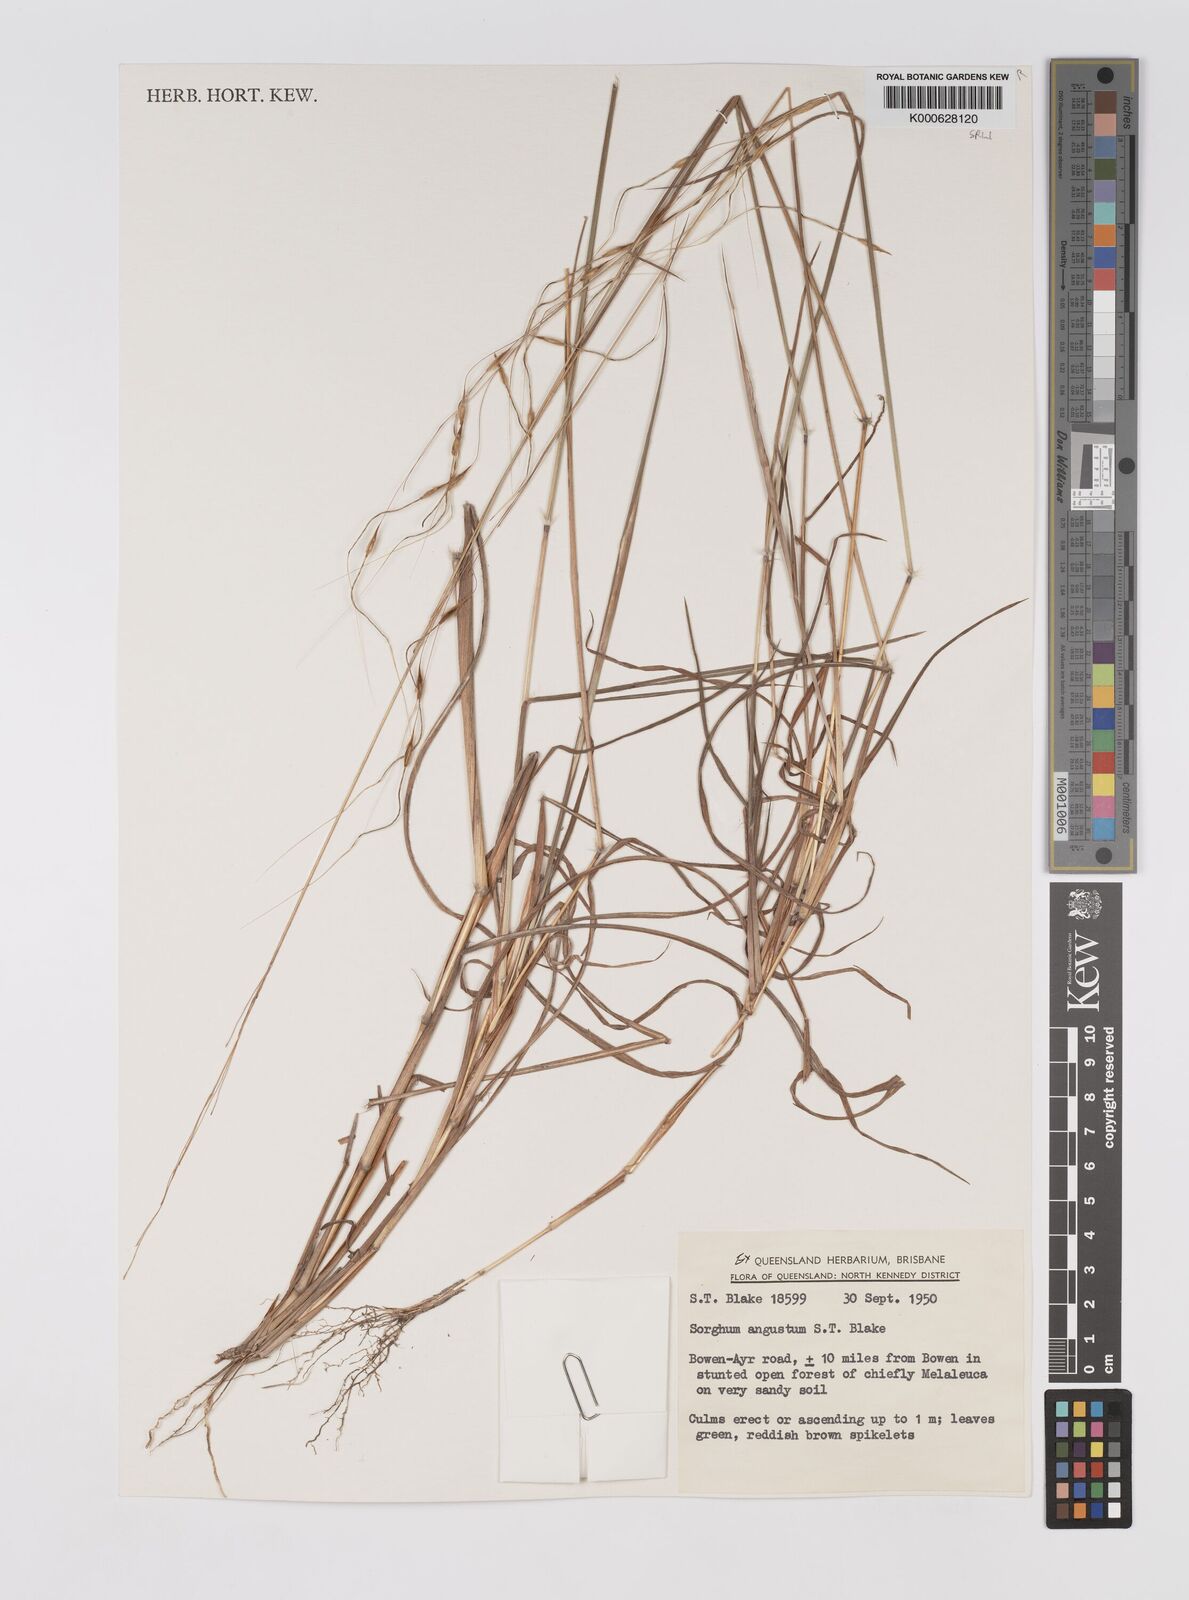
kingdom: Plantae
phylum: Tracheophyta
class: Liliopsida
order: Poales
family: Poaceae
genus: Sarga
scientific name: Sarga angusta
